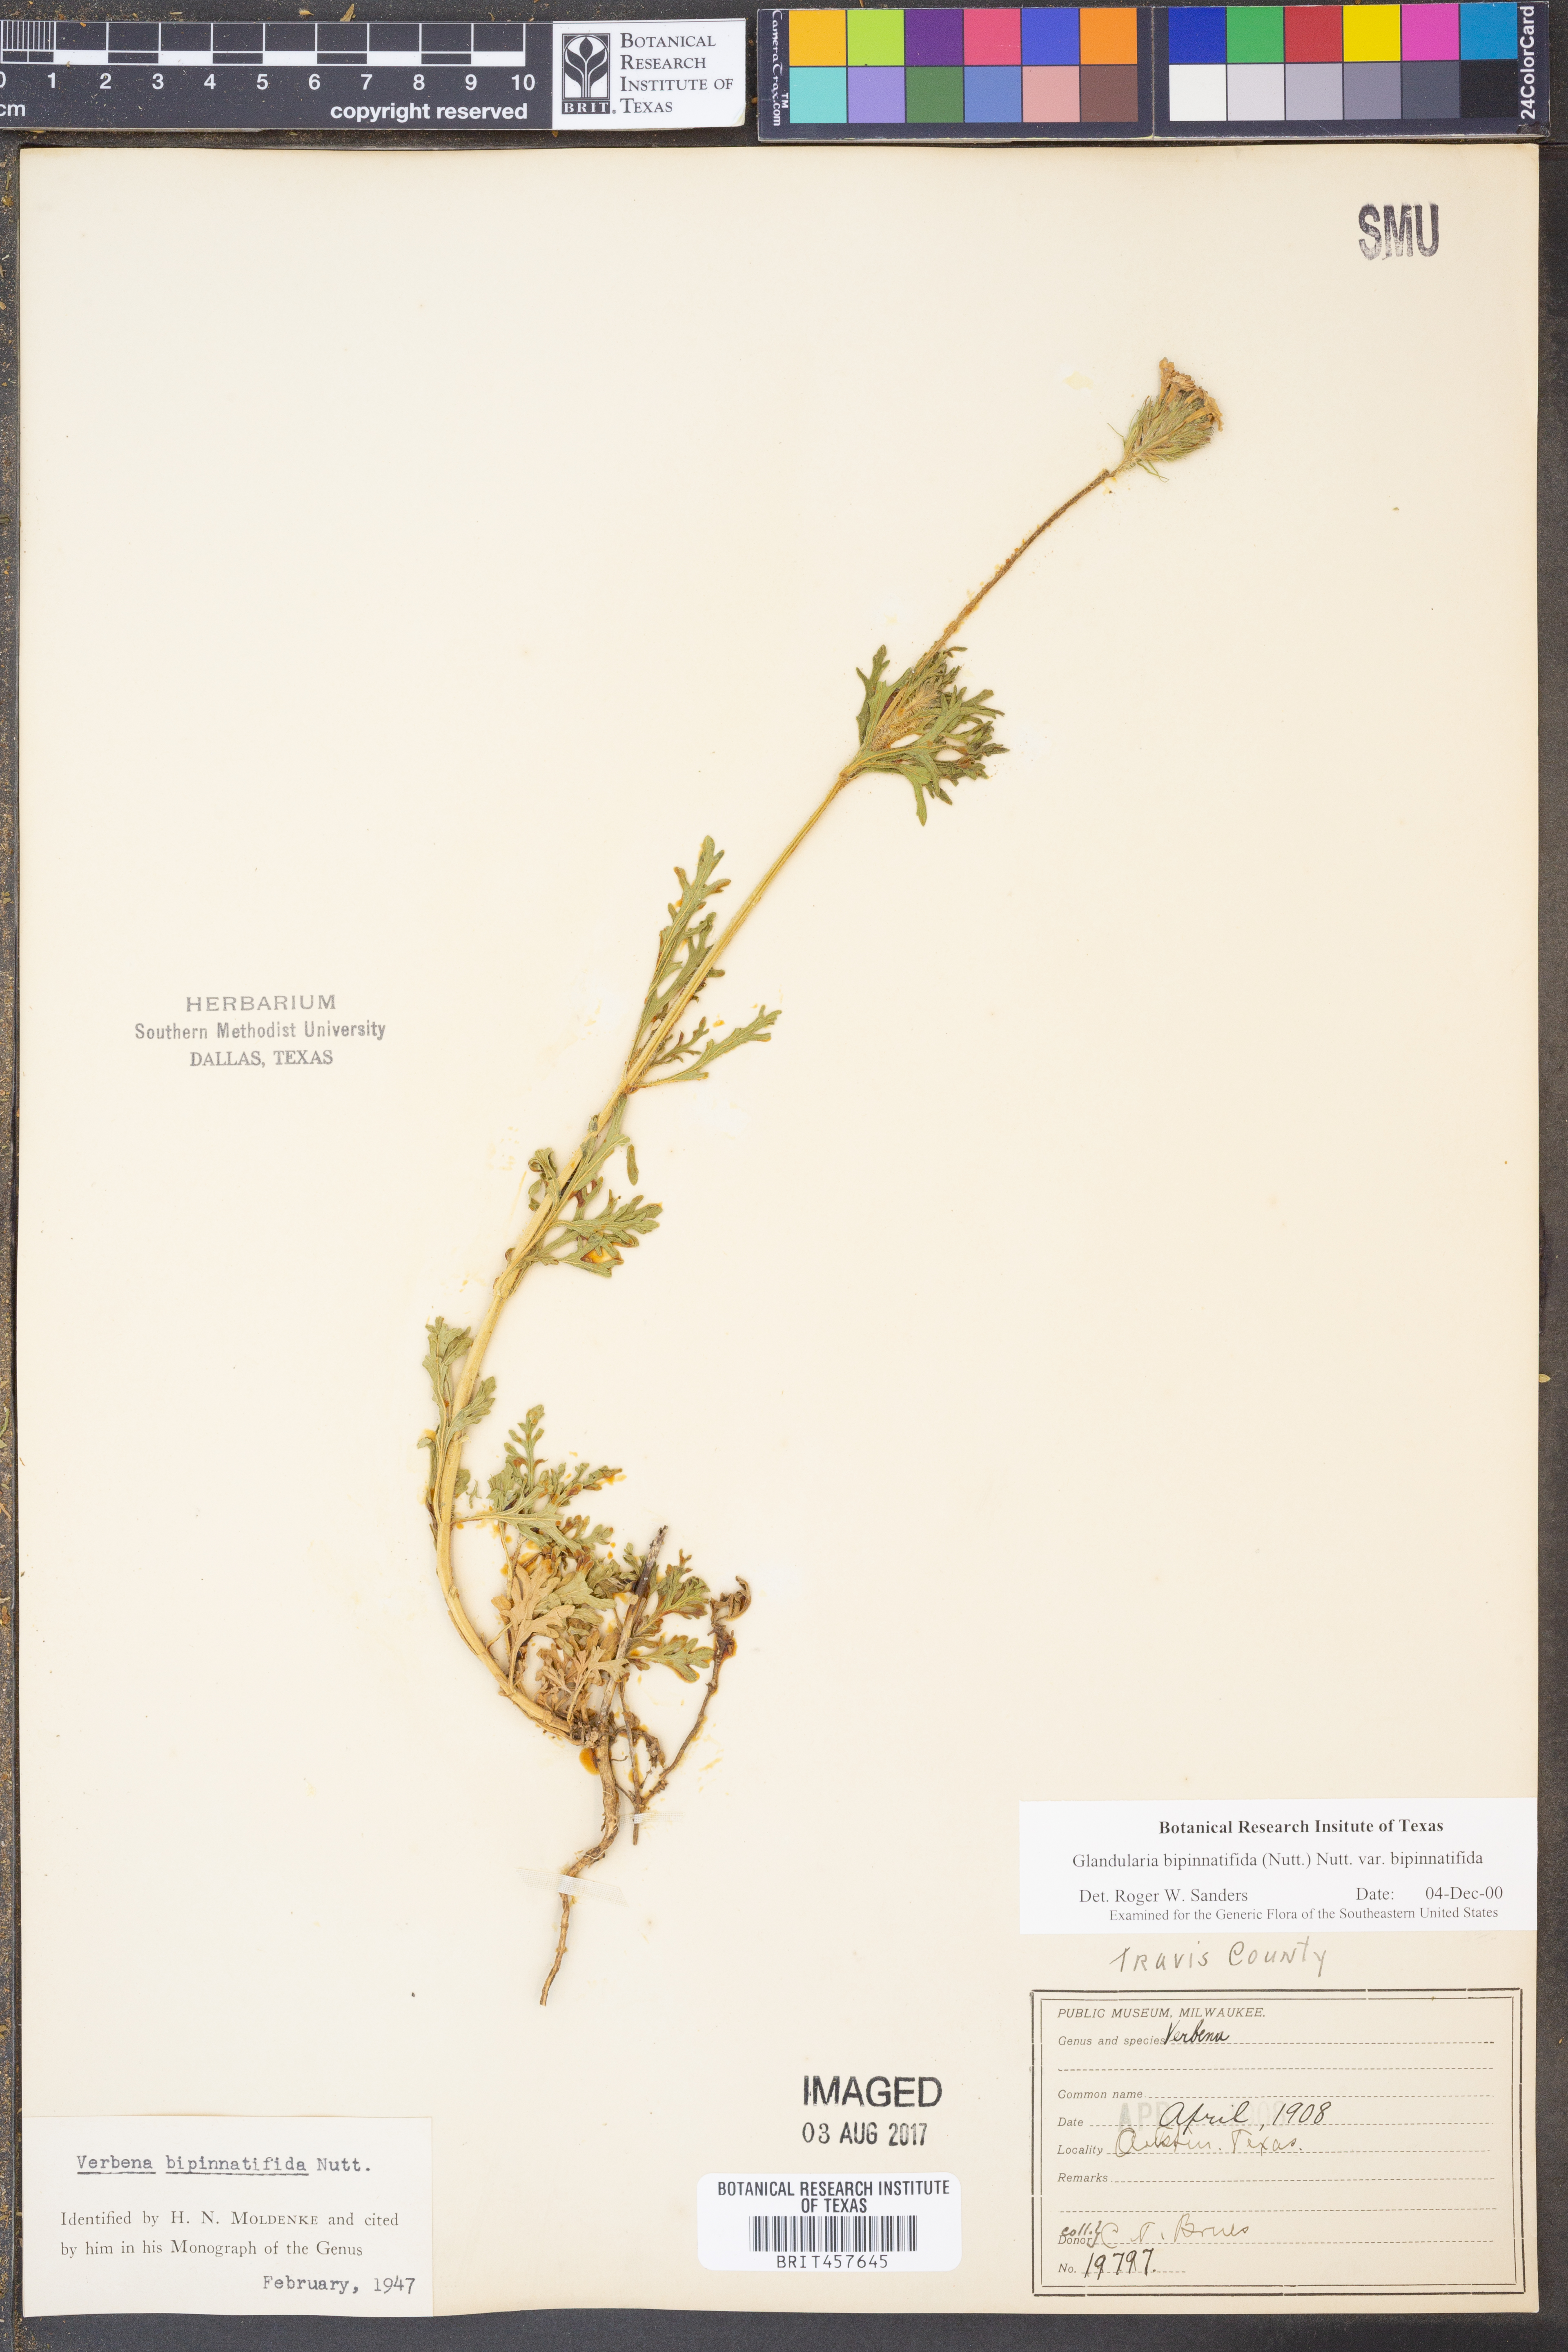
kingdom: Plantae
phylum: Tracheophyta
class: Magnoliopsida
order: Lamiales
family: Verbenaceae
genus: Verbena
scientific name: Verbena bipinnatifida
